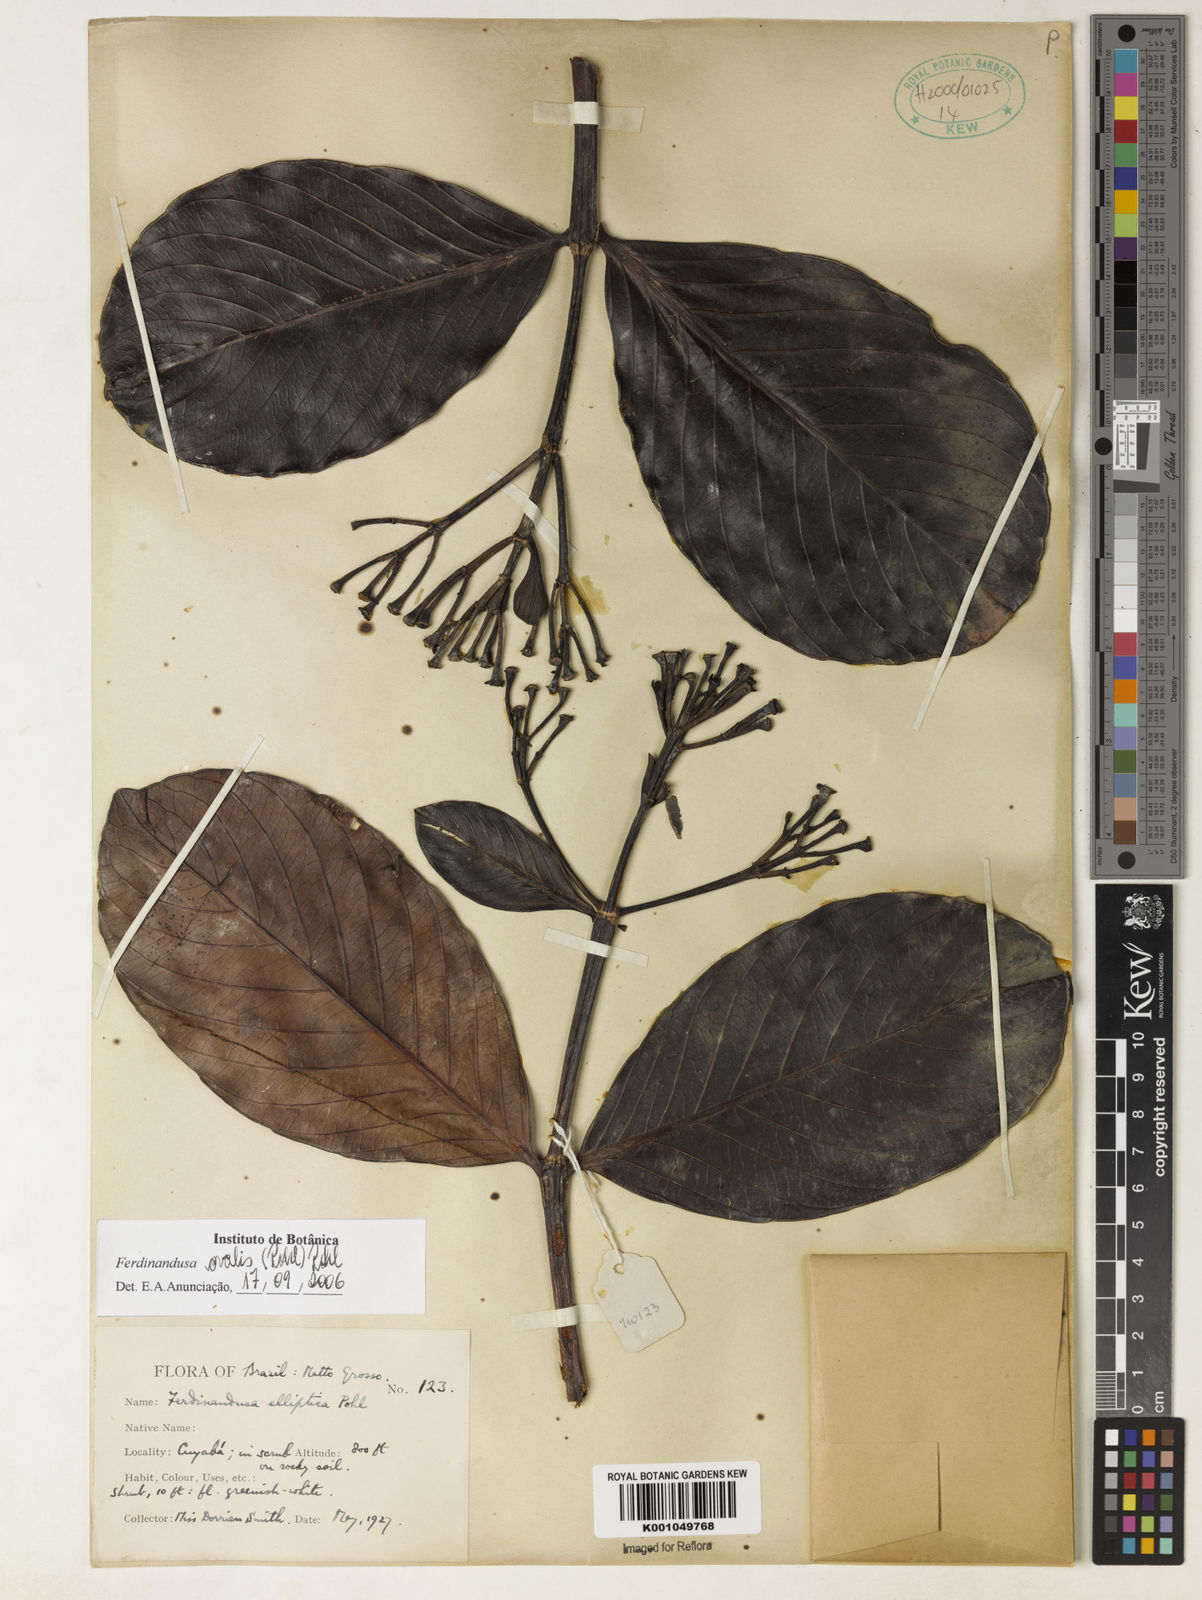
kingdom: Plantae
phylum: Tracheophyta
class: Magnoliopsida
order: Gentianales
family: Rubiaceae
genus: Ferdinandusa
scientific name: Ferdinandusa elliptica
